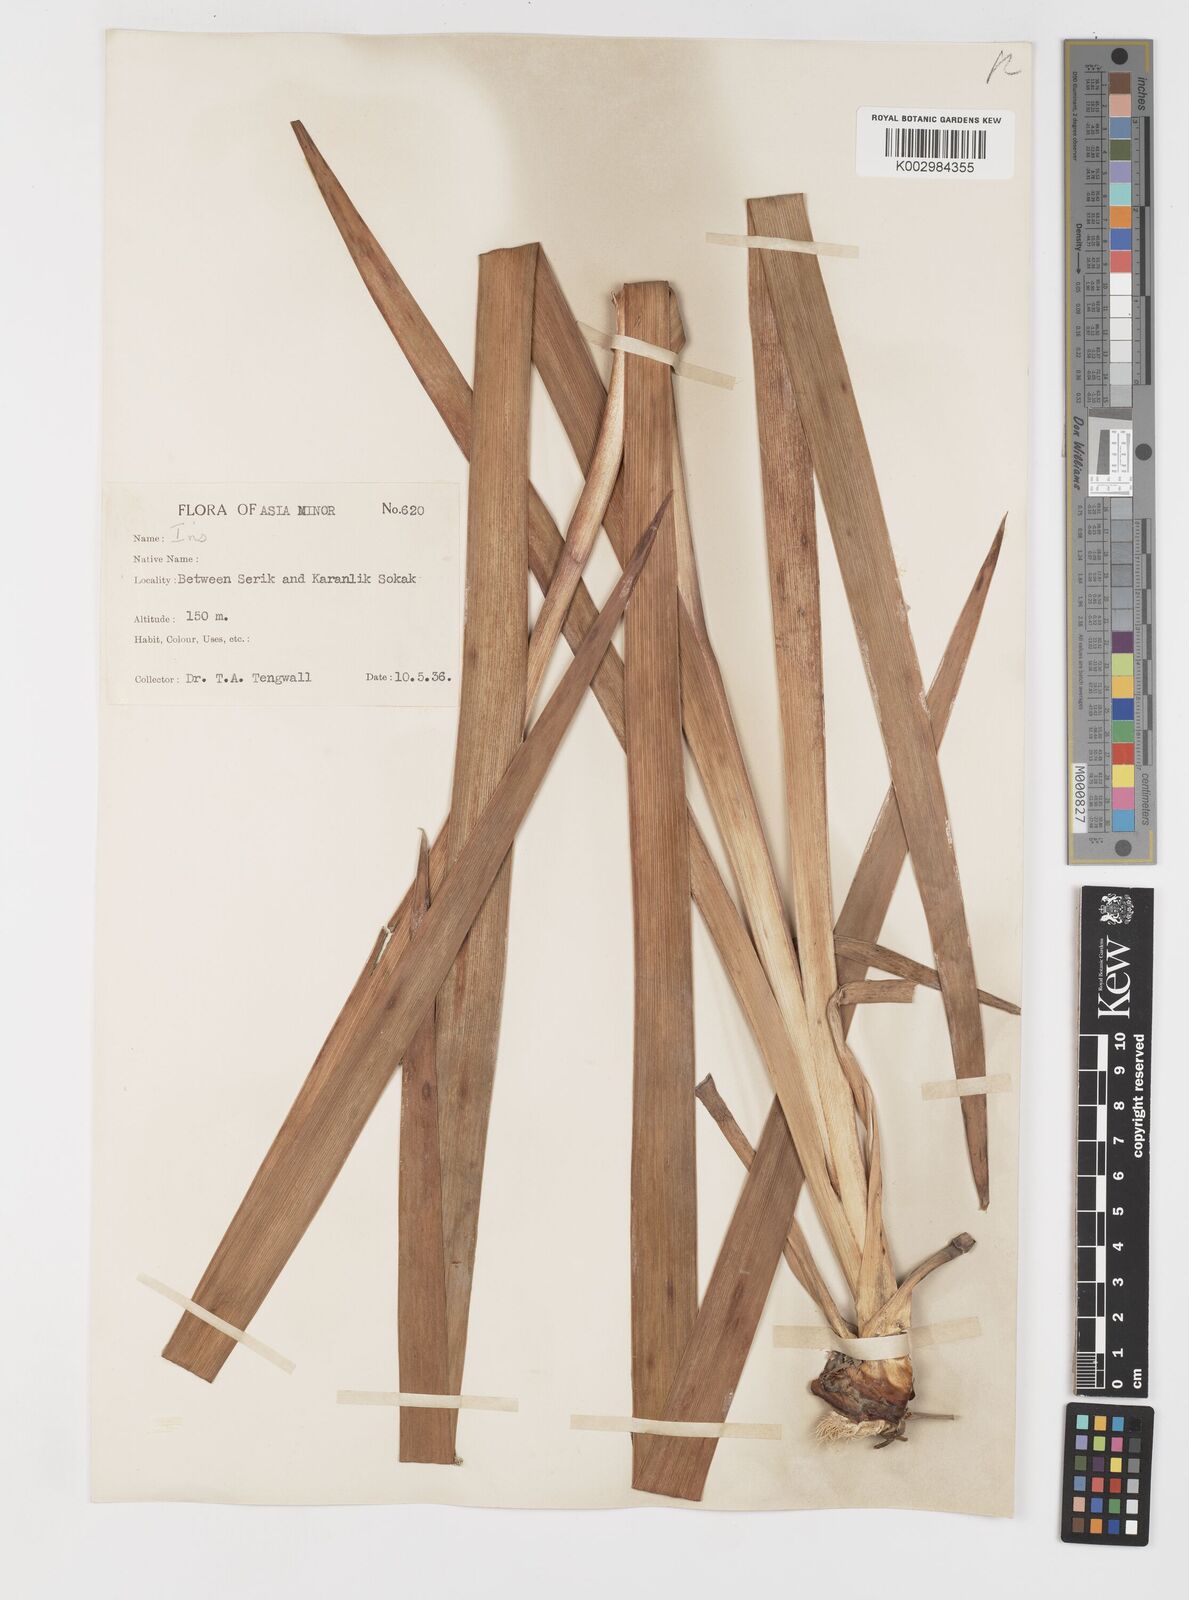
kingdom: Plantae
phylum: Tracheophyta
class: Liliopsida
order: Asparagales
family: Iridaceae
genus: Iris
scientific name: Iris orientalis
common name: Turkish iris
